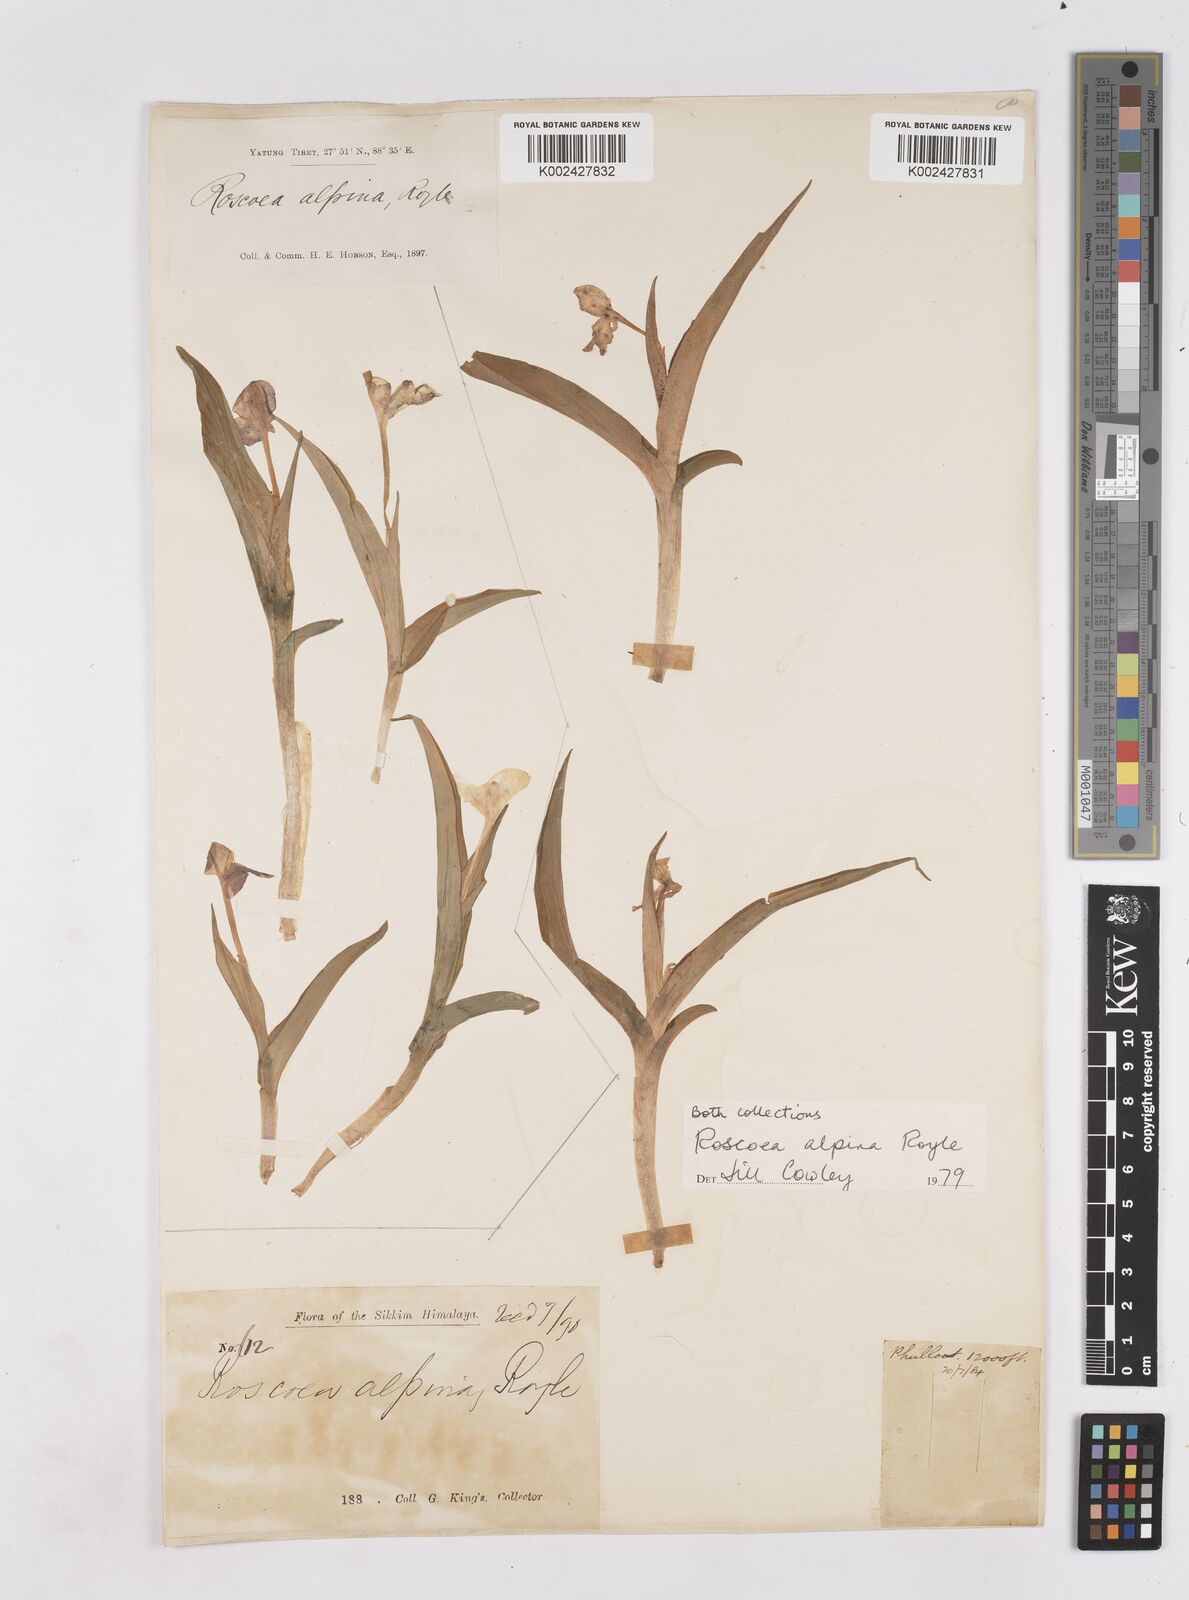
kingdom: Plantae
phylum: Tracheophyta
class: Liliopsida
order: Zingiberales
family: Zingiberaceae
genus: Roscoea
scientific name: Roscoea alpina
